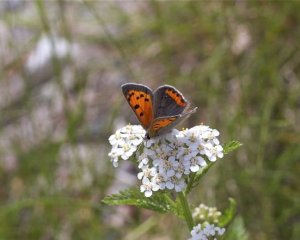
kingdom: Animalia
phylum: Arthropoda
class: Insecta
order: Lepidoptera
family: Lycaenidae
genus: Lycaena
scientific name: Lycaena phlaeas
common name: American Copper
